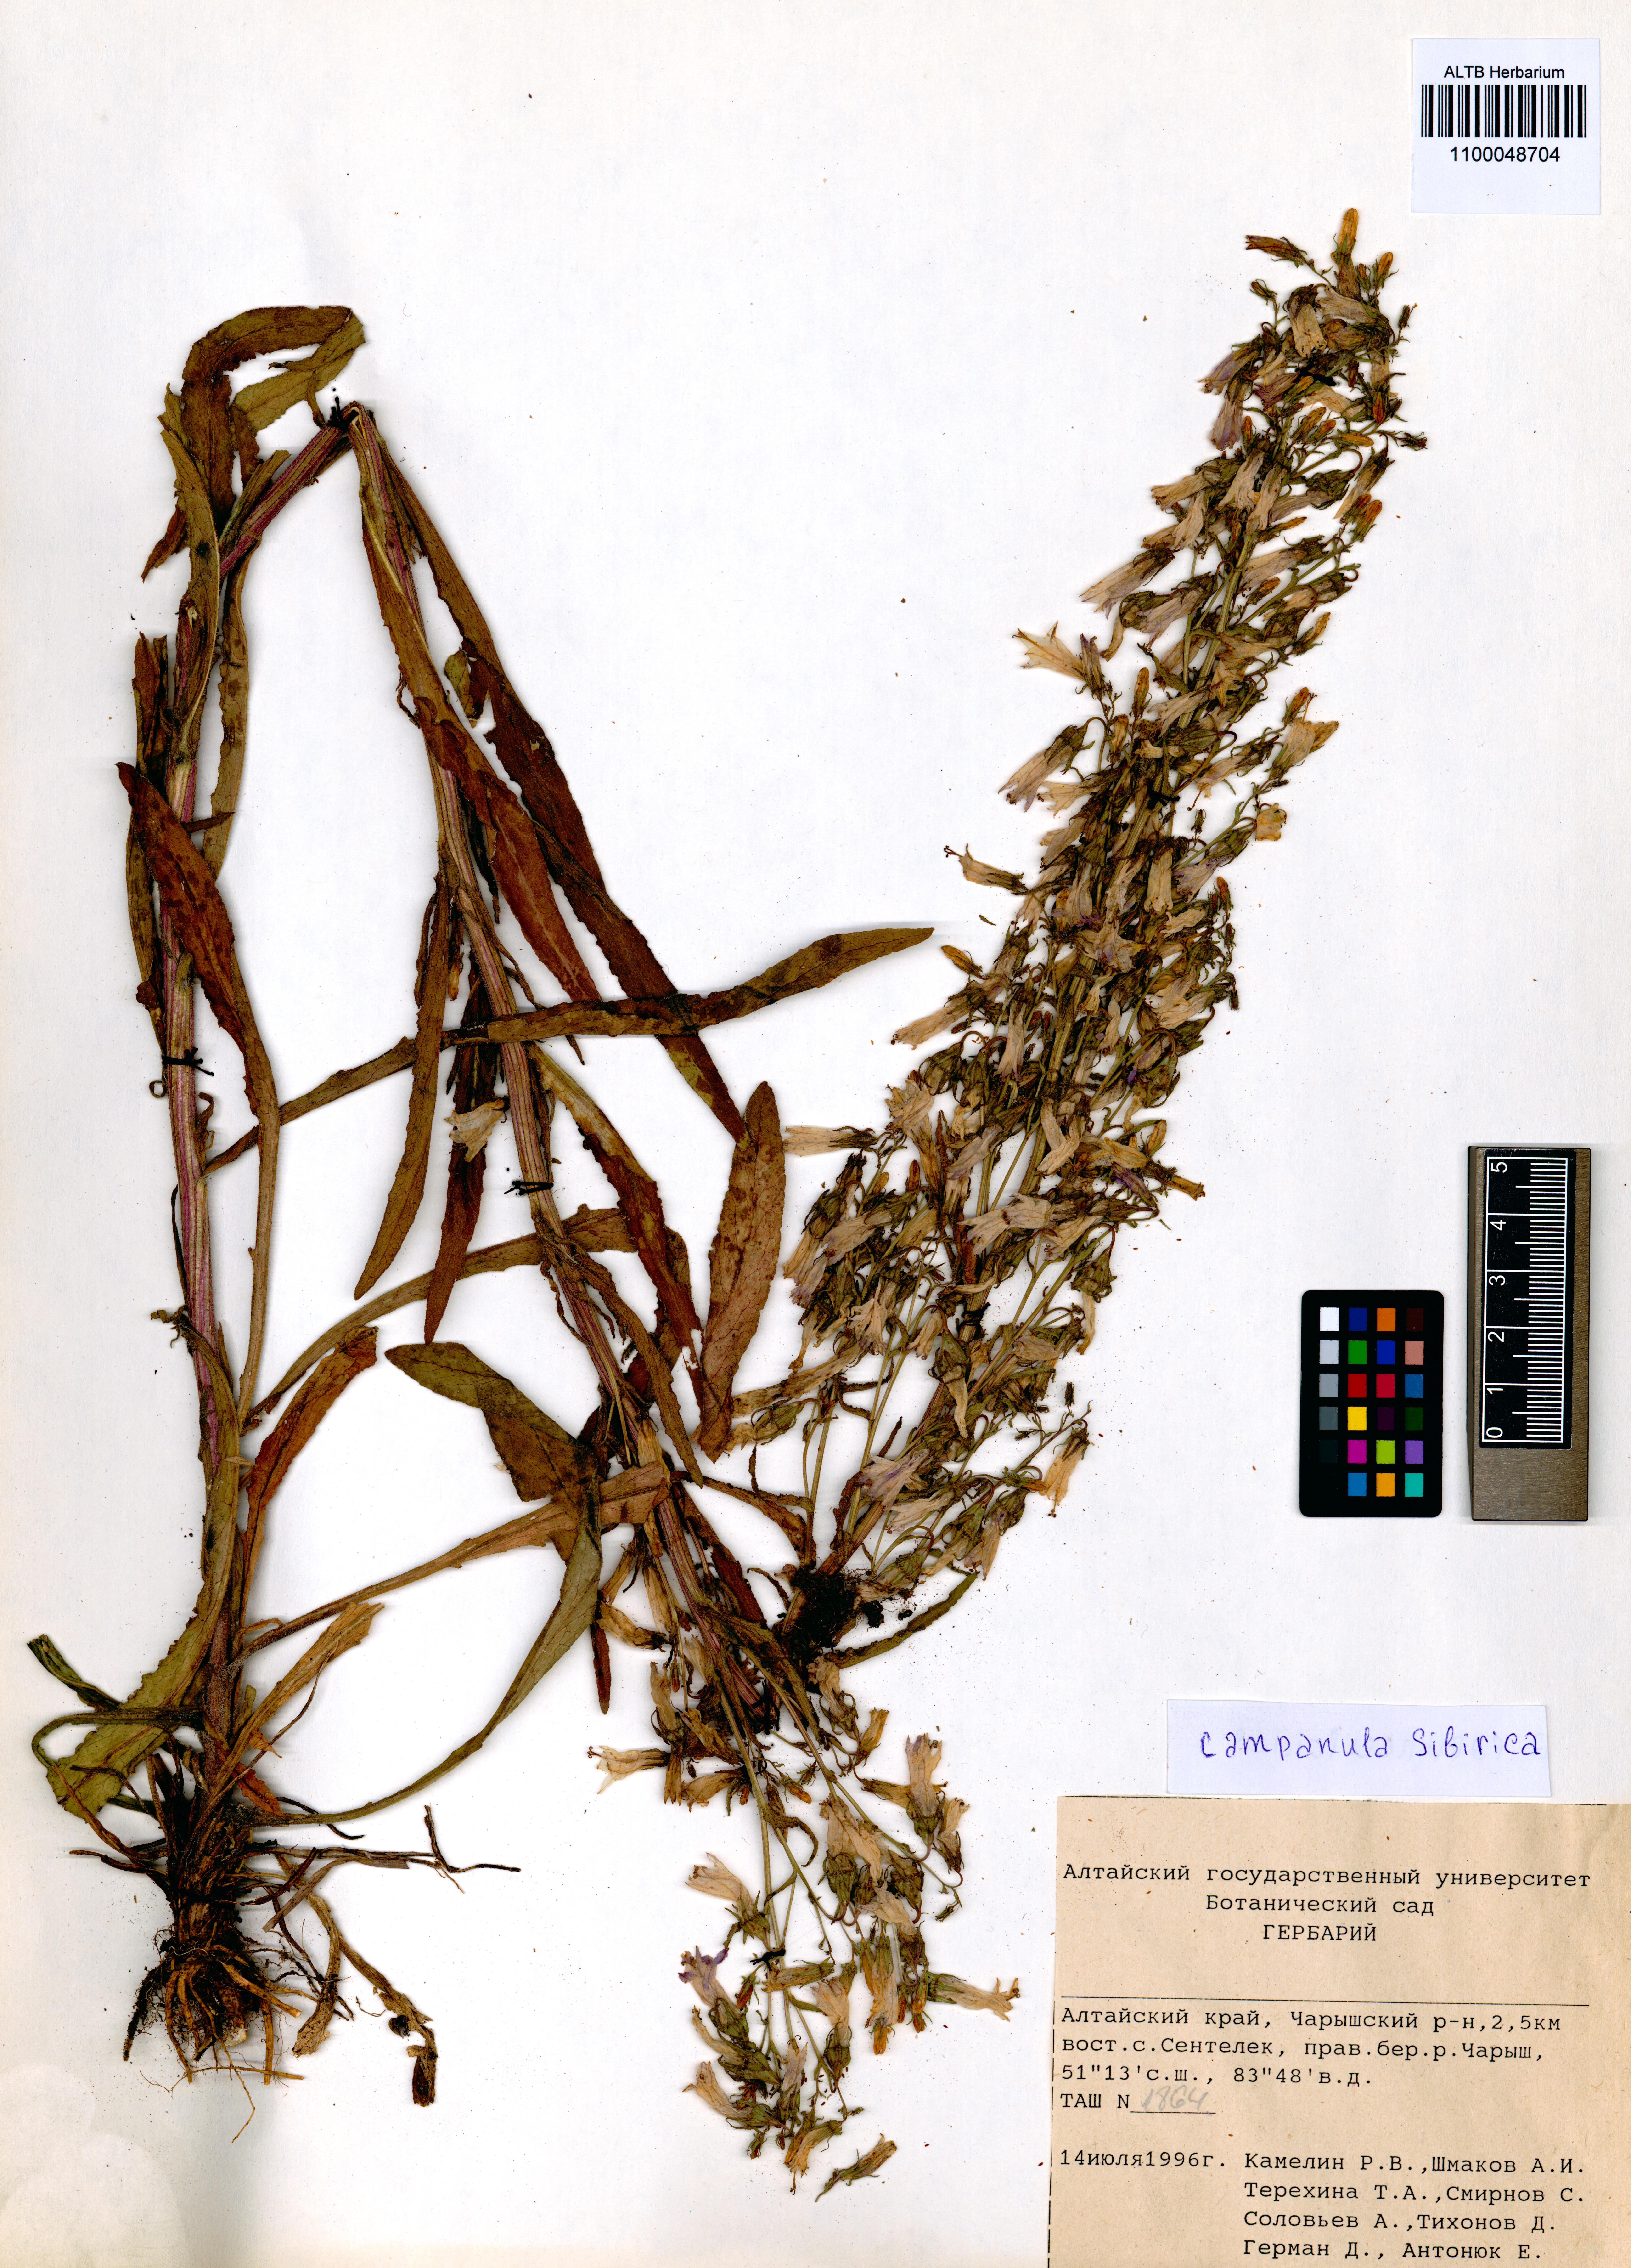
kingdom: Plantae
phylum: Tracheophyta
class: Magnoliopsida
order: Asterales
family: Campanulaceae
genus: Campanula
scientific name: Campanula sibirica
